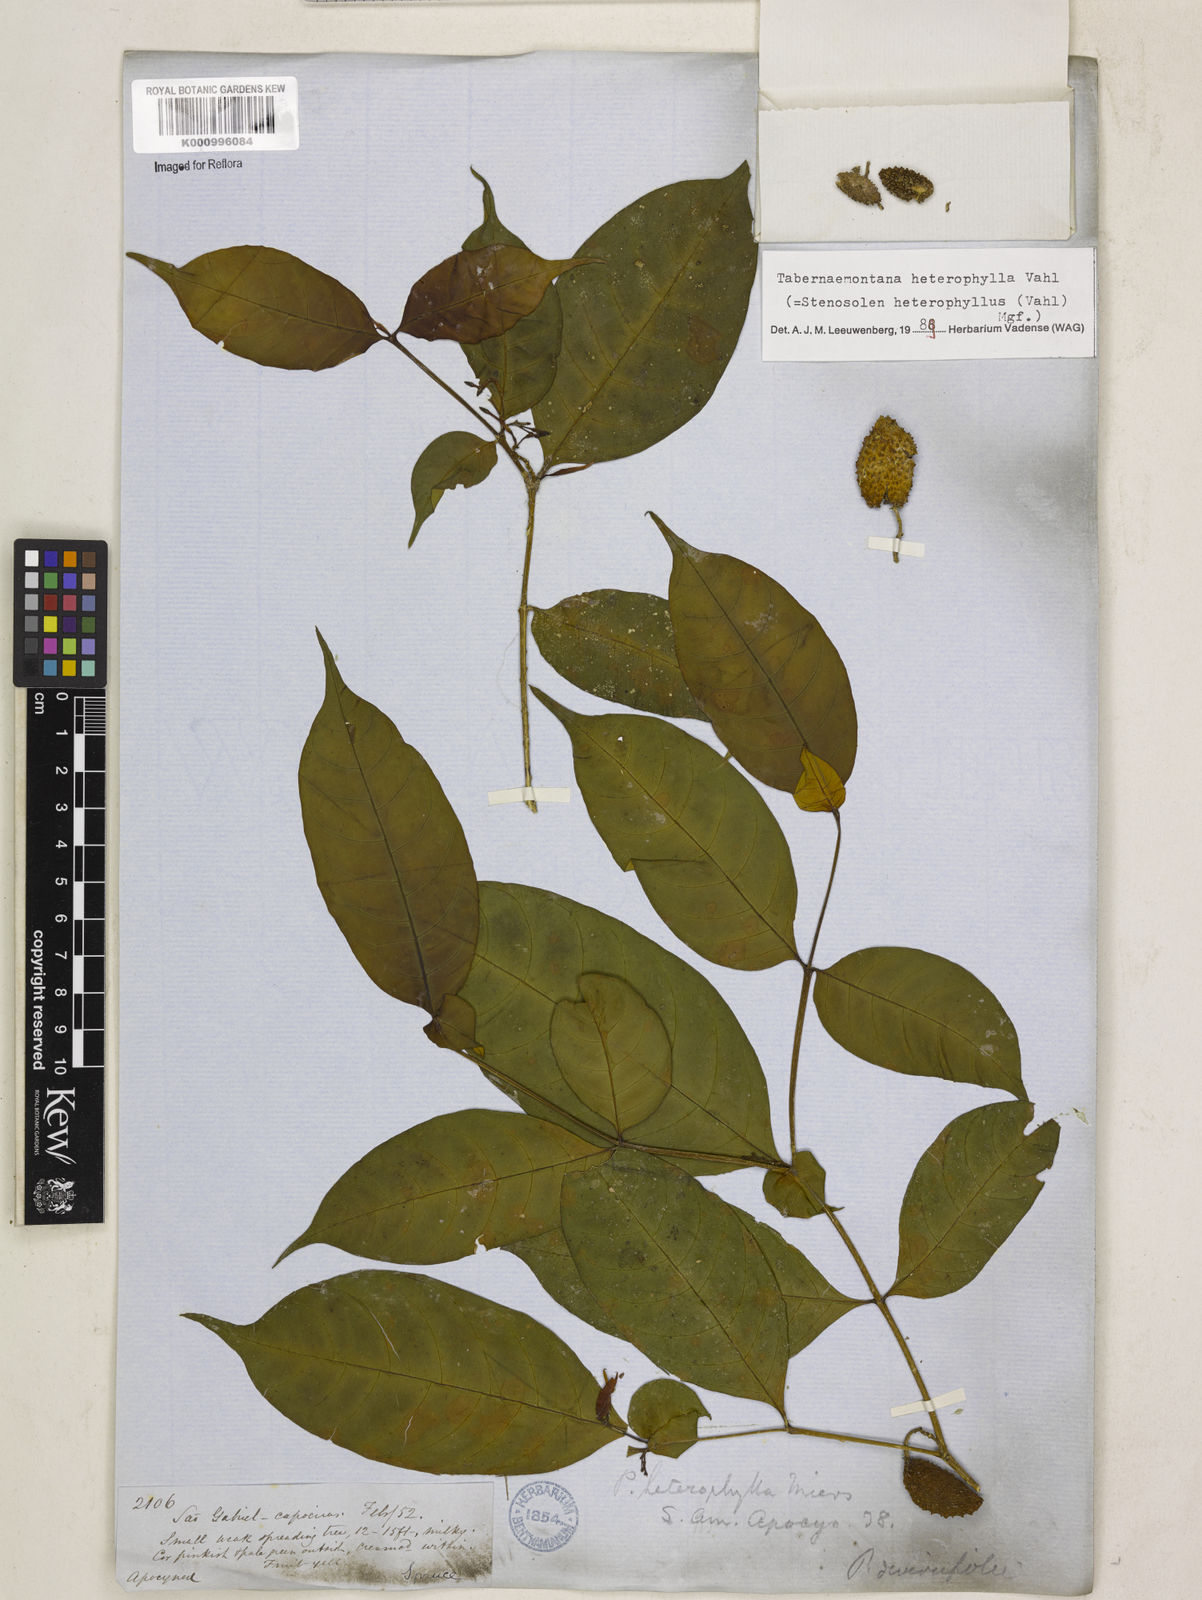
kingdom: Plantae
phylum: Tracheophyta
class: Magnoliopsida
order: Gentianales
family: Apocynaceae
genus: Tabernaemontana
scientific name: Tabernaemontana heterophylla
